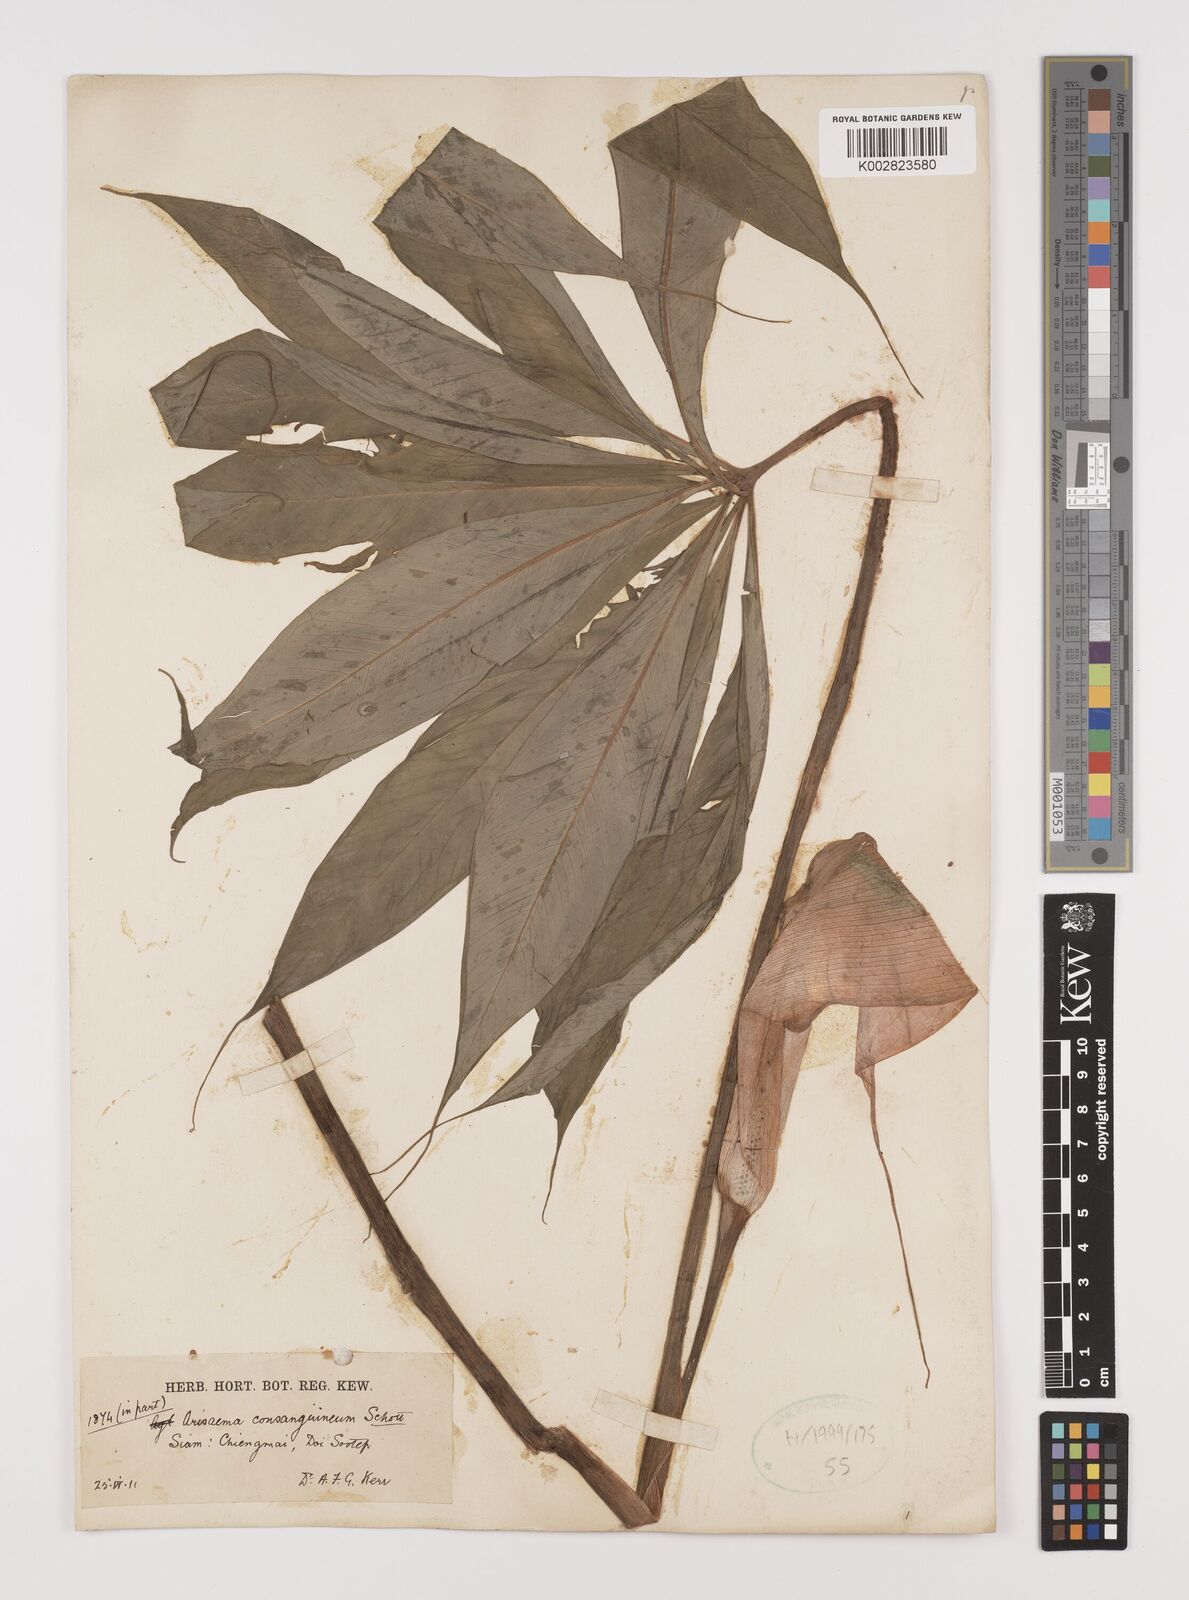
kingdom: Plantae
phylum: Tracheophyta
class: Liliopsida
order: Alismatales
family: Araceae
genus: Arisaema
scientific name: Arisaema consanguineum
